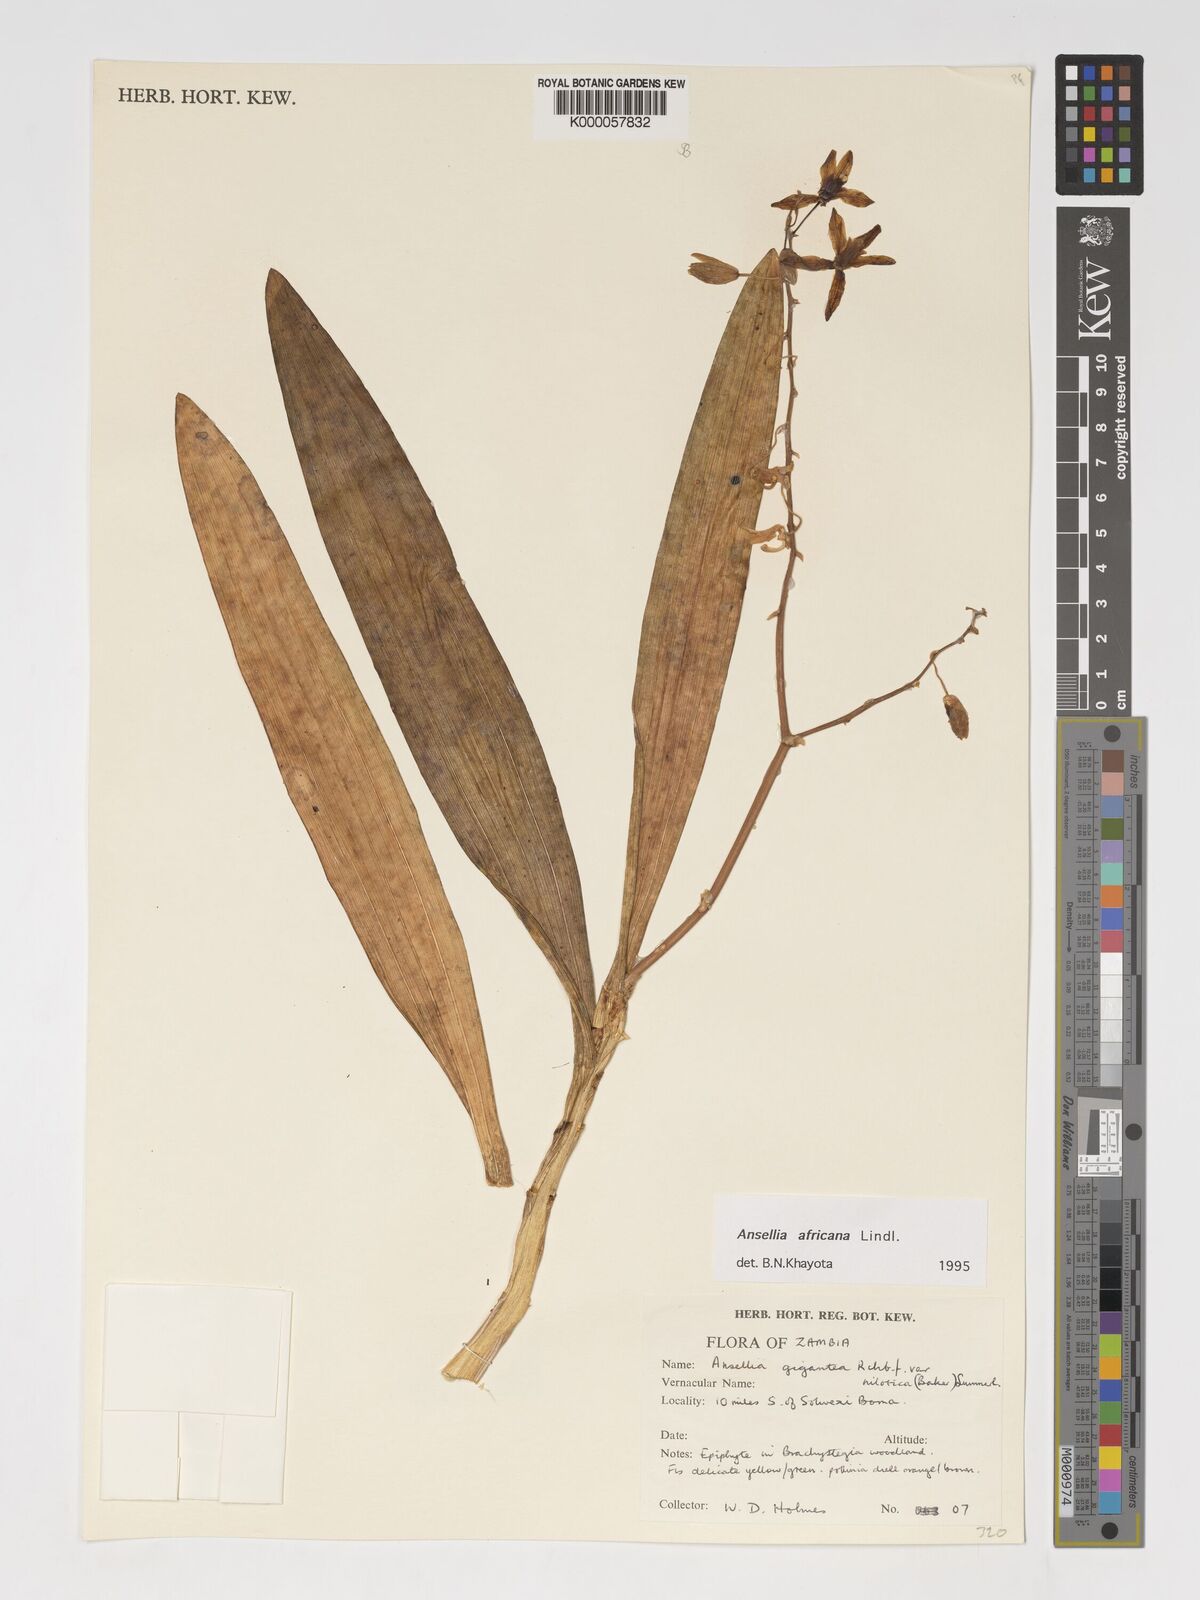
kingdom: Plantae
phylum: Tracheophyta
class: Liliopsida
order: Asparagales
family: Orchidaceae
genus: Ansellia
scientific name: Ansellia africana
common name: African ansellia
